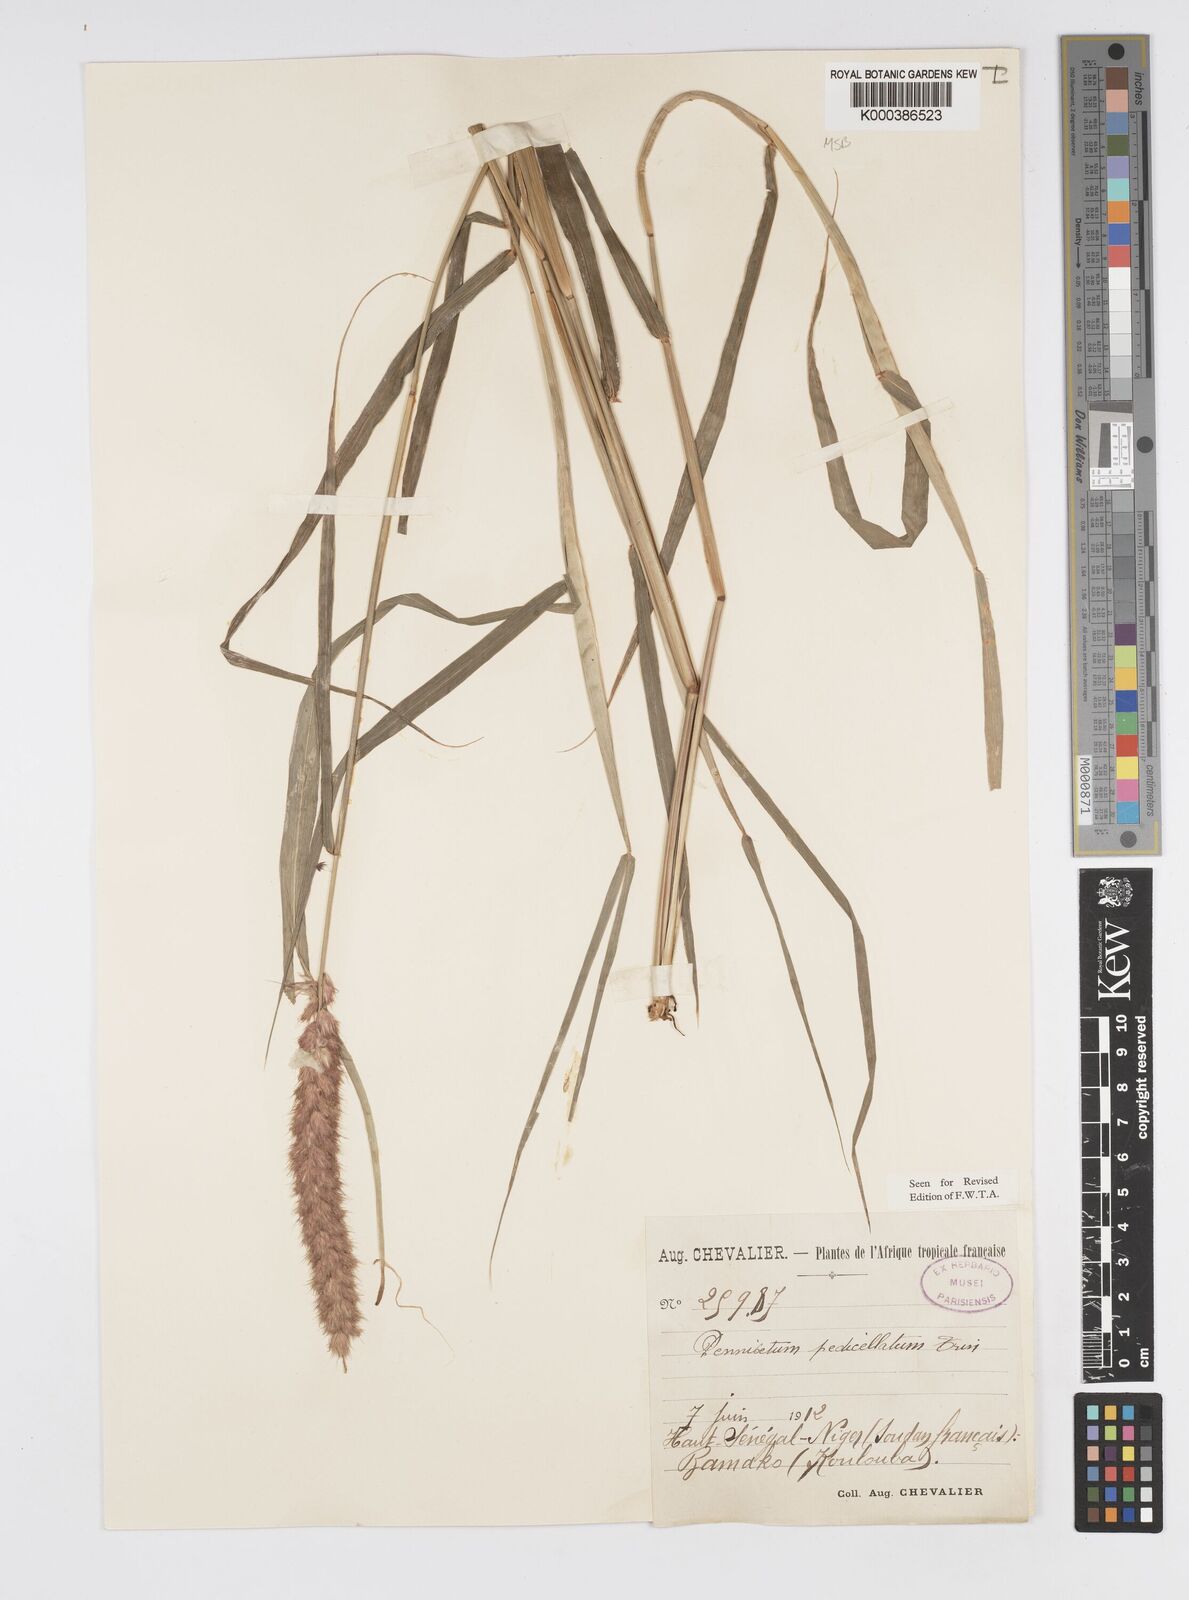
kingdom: Plantae
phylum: Tracheophyta
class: Liliopsida
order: Poales
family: Poaceae
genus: Cenchrus
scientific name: Cenchrus pedicellatus
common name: Hairy fountain grass
